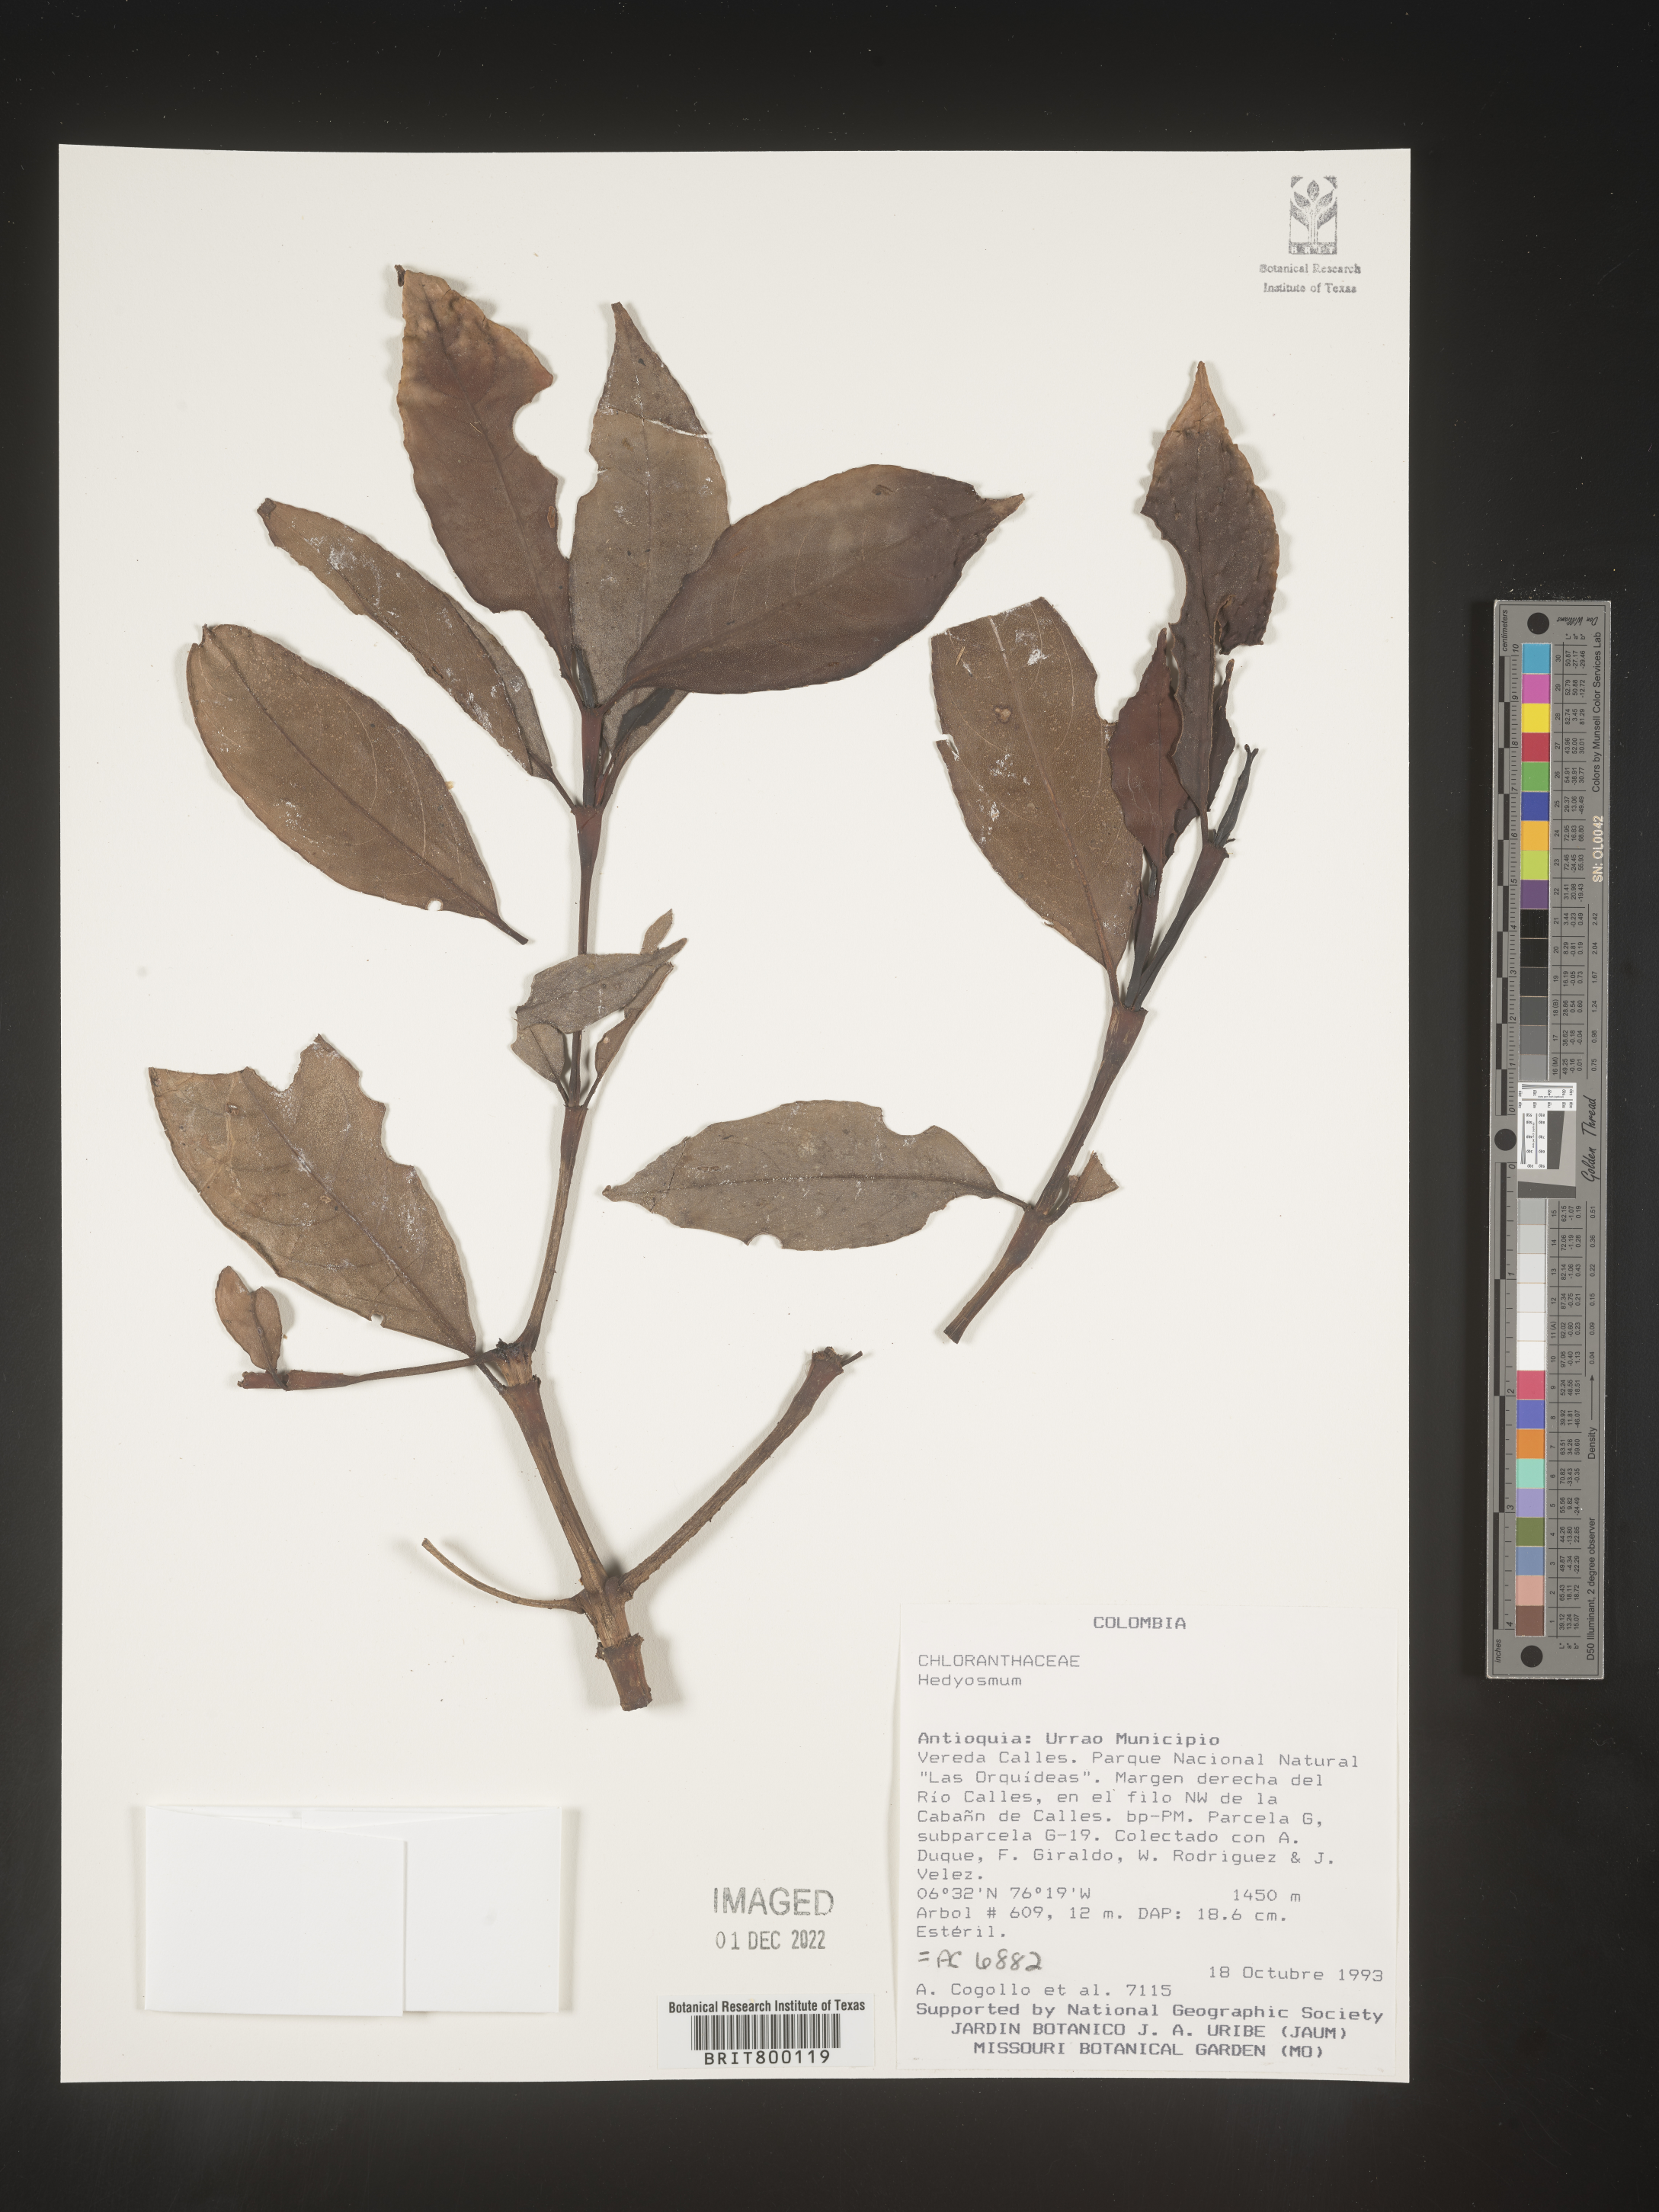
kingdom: Plantae
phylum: Tracheophyta
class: Magnoliopsida
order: Chloranthales
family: Chloranthaceae
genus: Hedyosmum
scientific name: Hedyosmum
